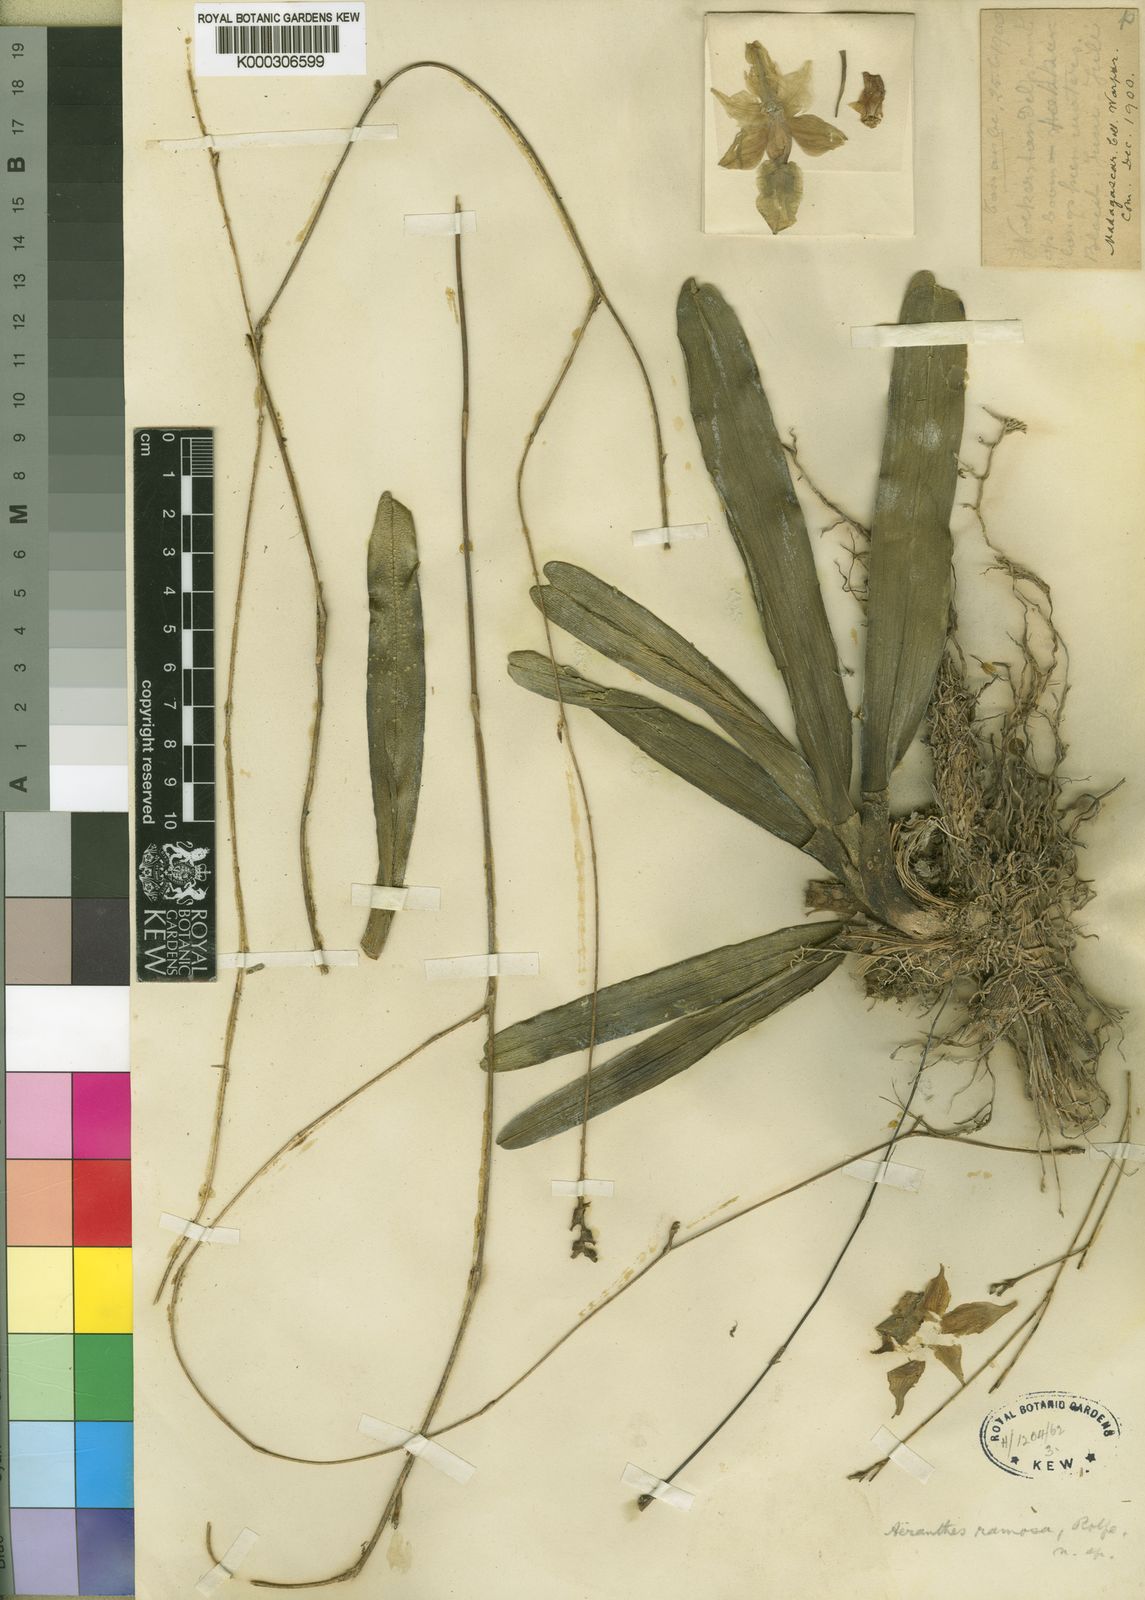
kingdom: Plantae
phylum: Tracheophyta
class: Liliopsida
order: Asparagales
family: Orchidaceae
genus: Aeranthes
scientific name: Aeranthes ramosa
